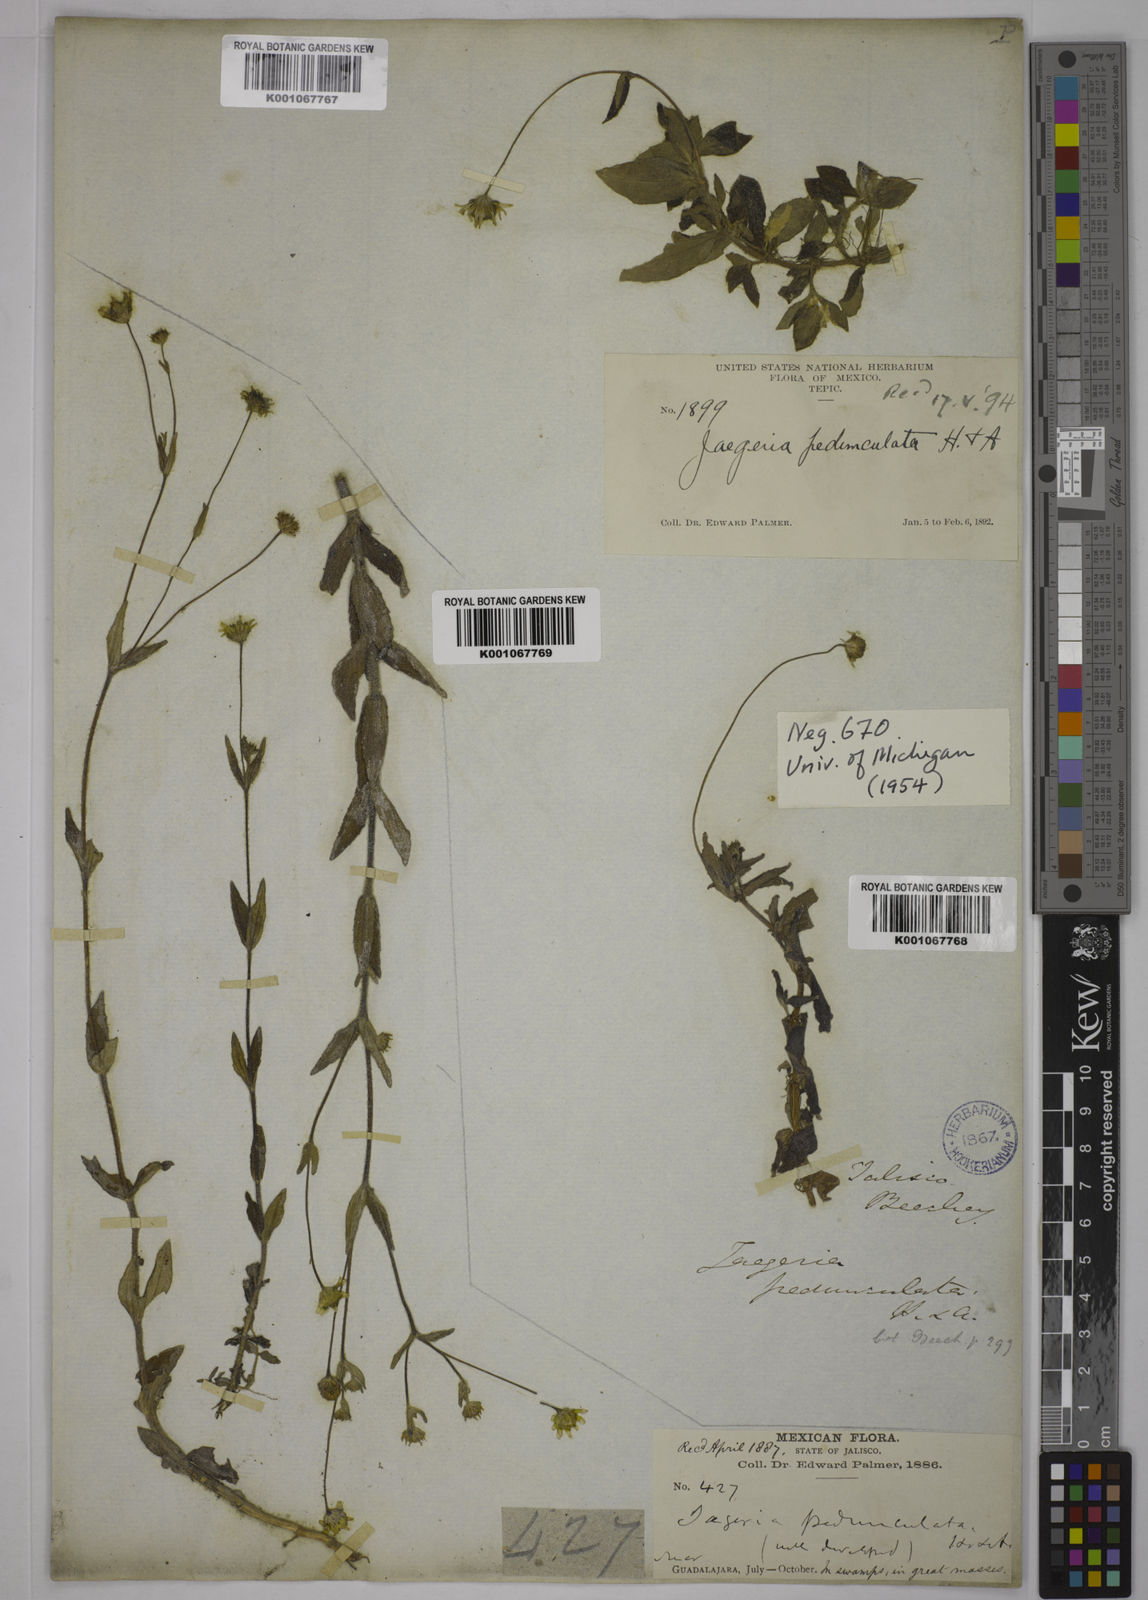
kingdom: Plantae
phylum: Tracheophyta
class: Magnoliopsida
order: Asterales
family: Asteraceae
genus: Jaegeria
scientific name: Jaegeria pedunculata
